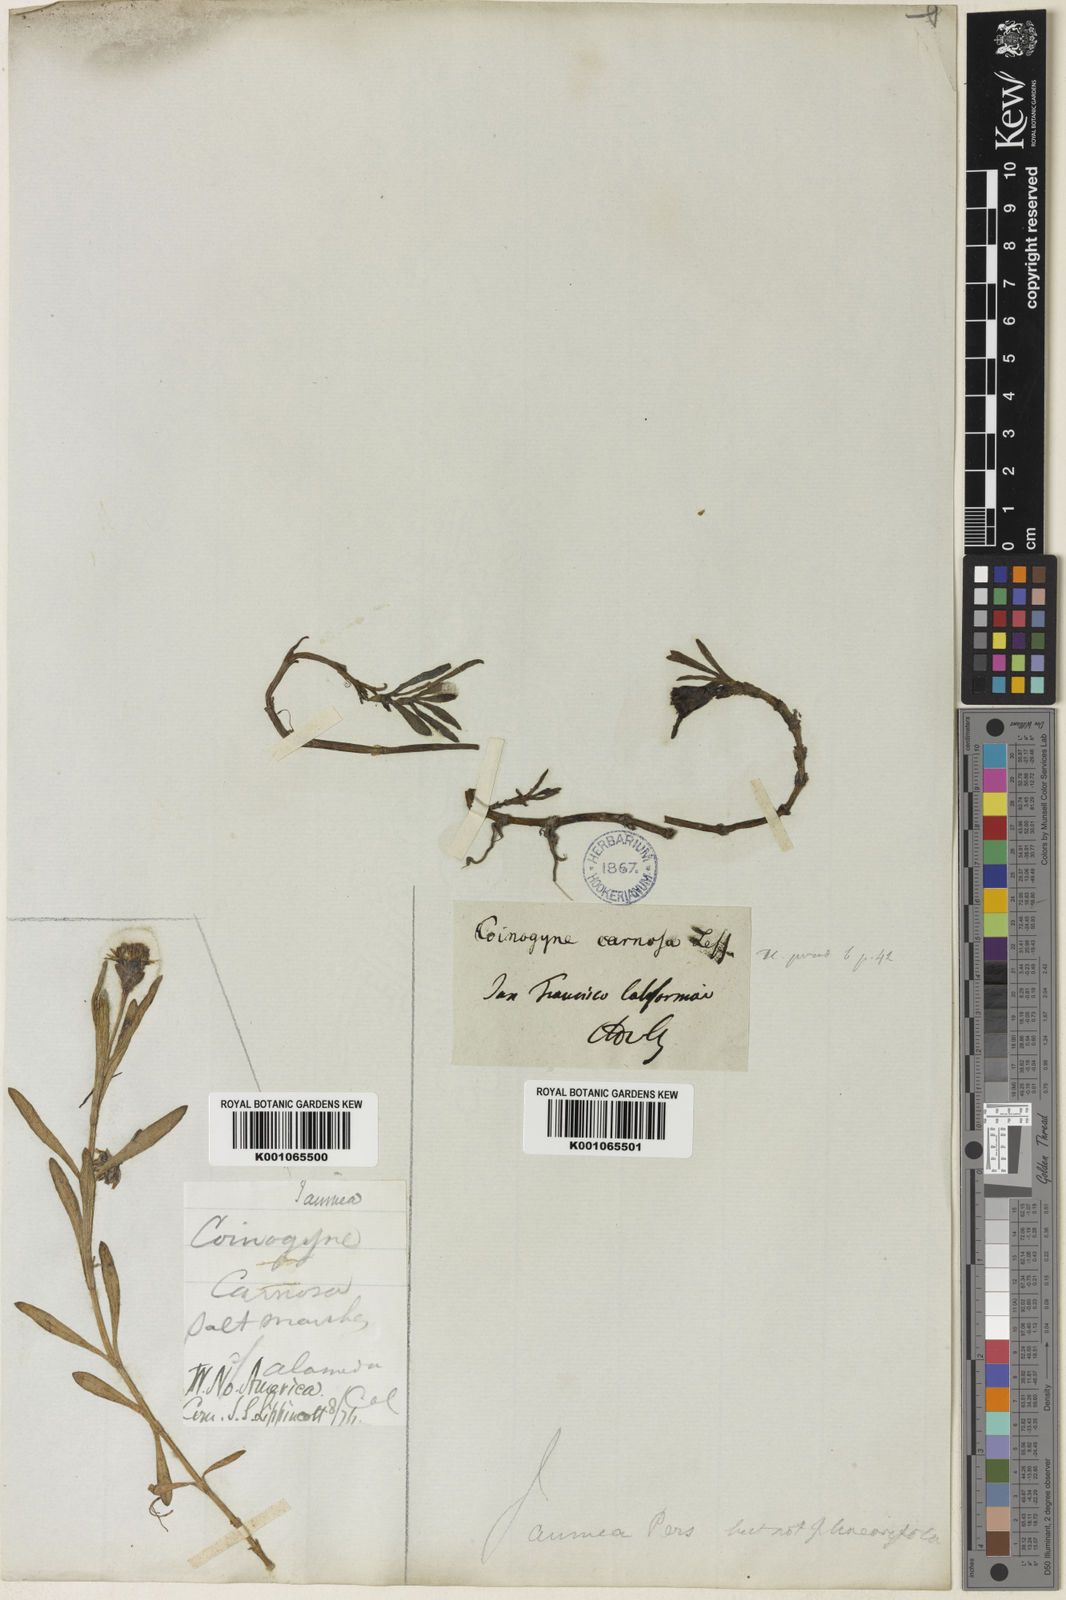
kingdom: Plantae
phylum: Tracheophyta
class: Magnoliopsida
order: Asterales
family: Asteraceae
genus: Jaumea
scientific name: Jaumea carnosa
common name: Fleshy jaumea
